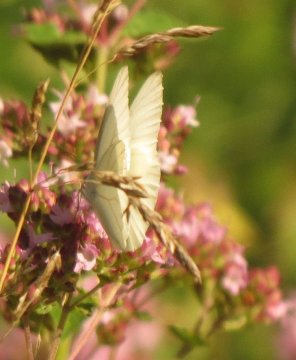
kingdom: Animalia
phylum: Arthropoda
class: Insecta
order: Lepidoptera
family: Pieridae
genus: Pieris
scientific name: Pieris oleracea
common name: Mustard White
